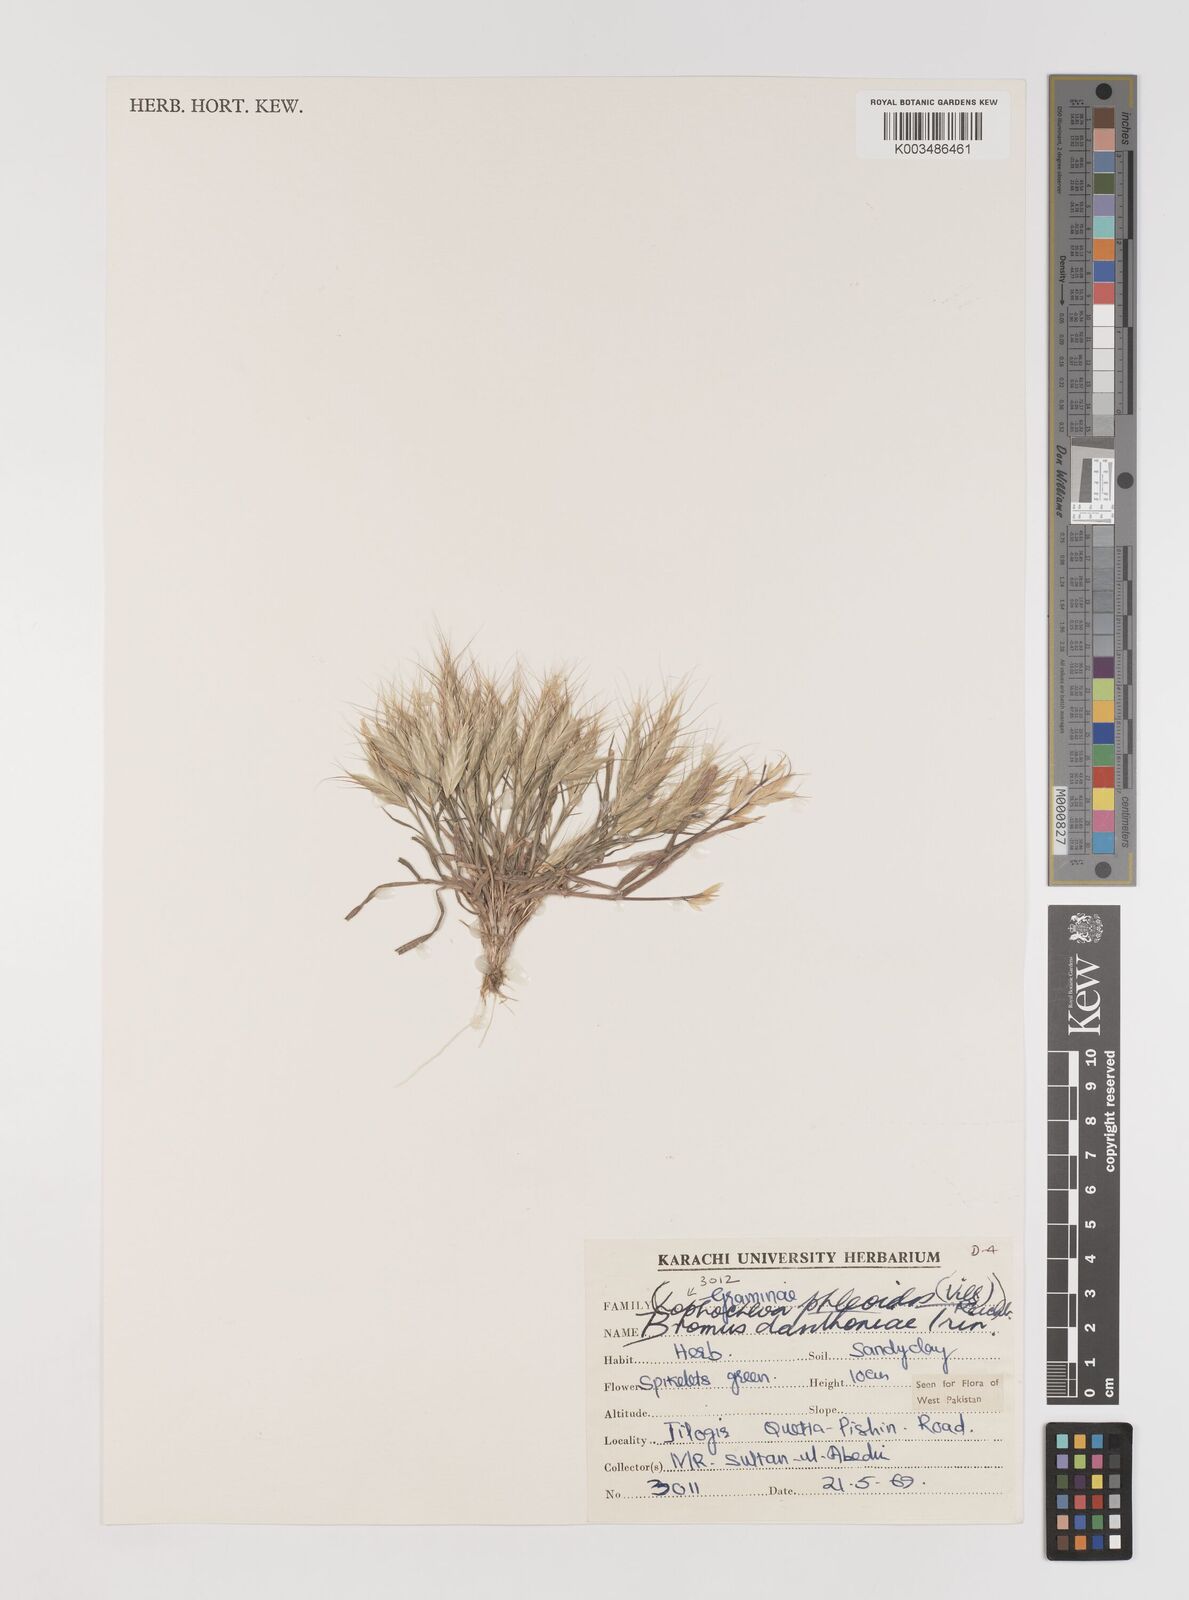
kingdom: Plantae
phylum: Tracheophyta
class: Liliopsida
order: Poales
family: Poaceae
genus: Bromus
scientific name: Bromus danthoniae
